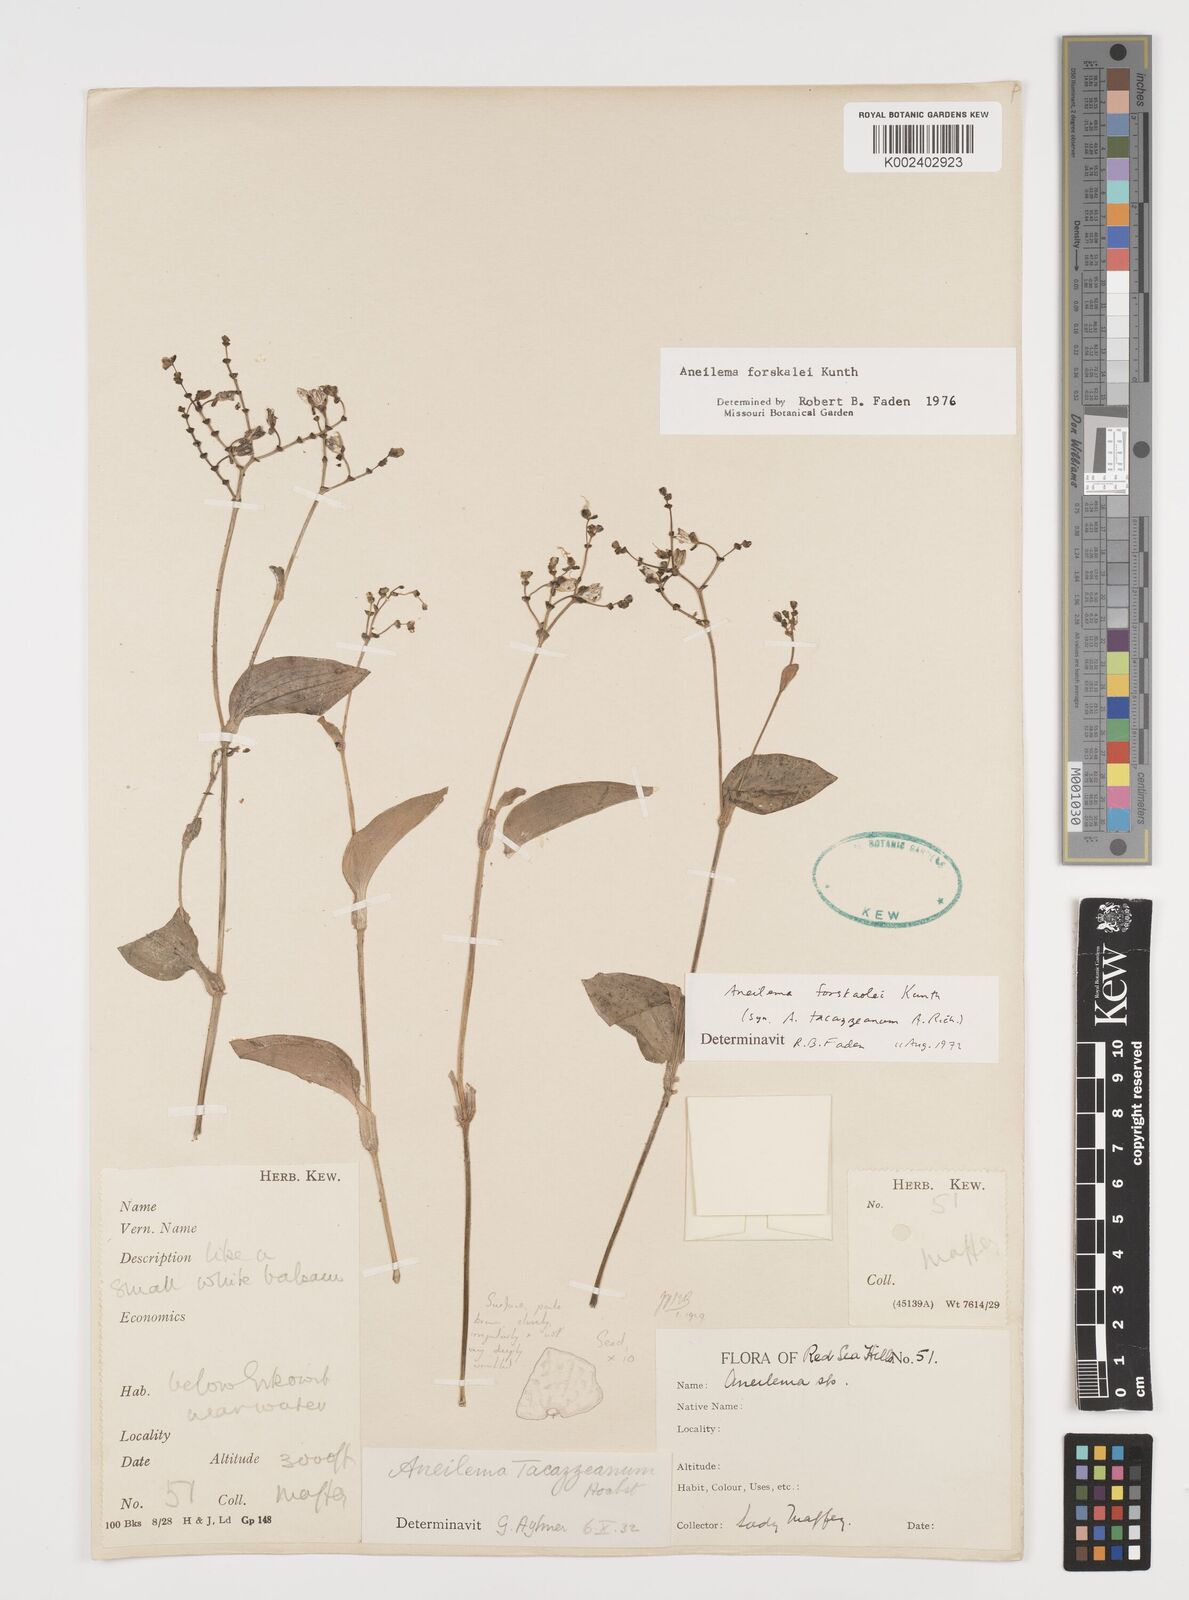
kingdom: Plantae
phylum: Tracheophyta
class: Liliopsida
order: Commelinales
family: Commelinaceae
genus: Aneilema
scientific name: Aneilema forskalii
